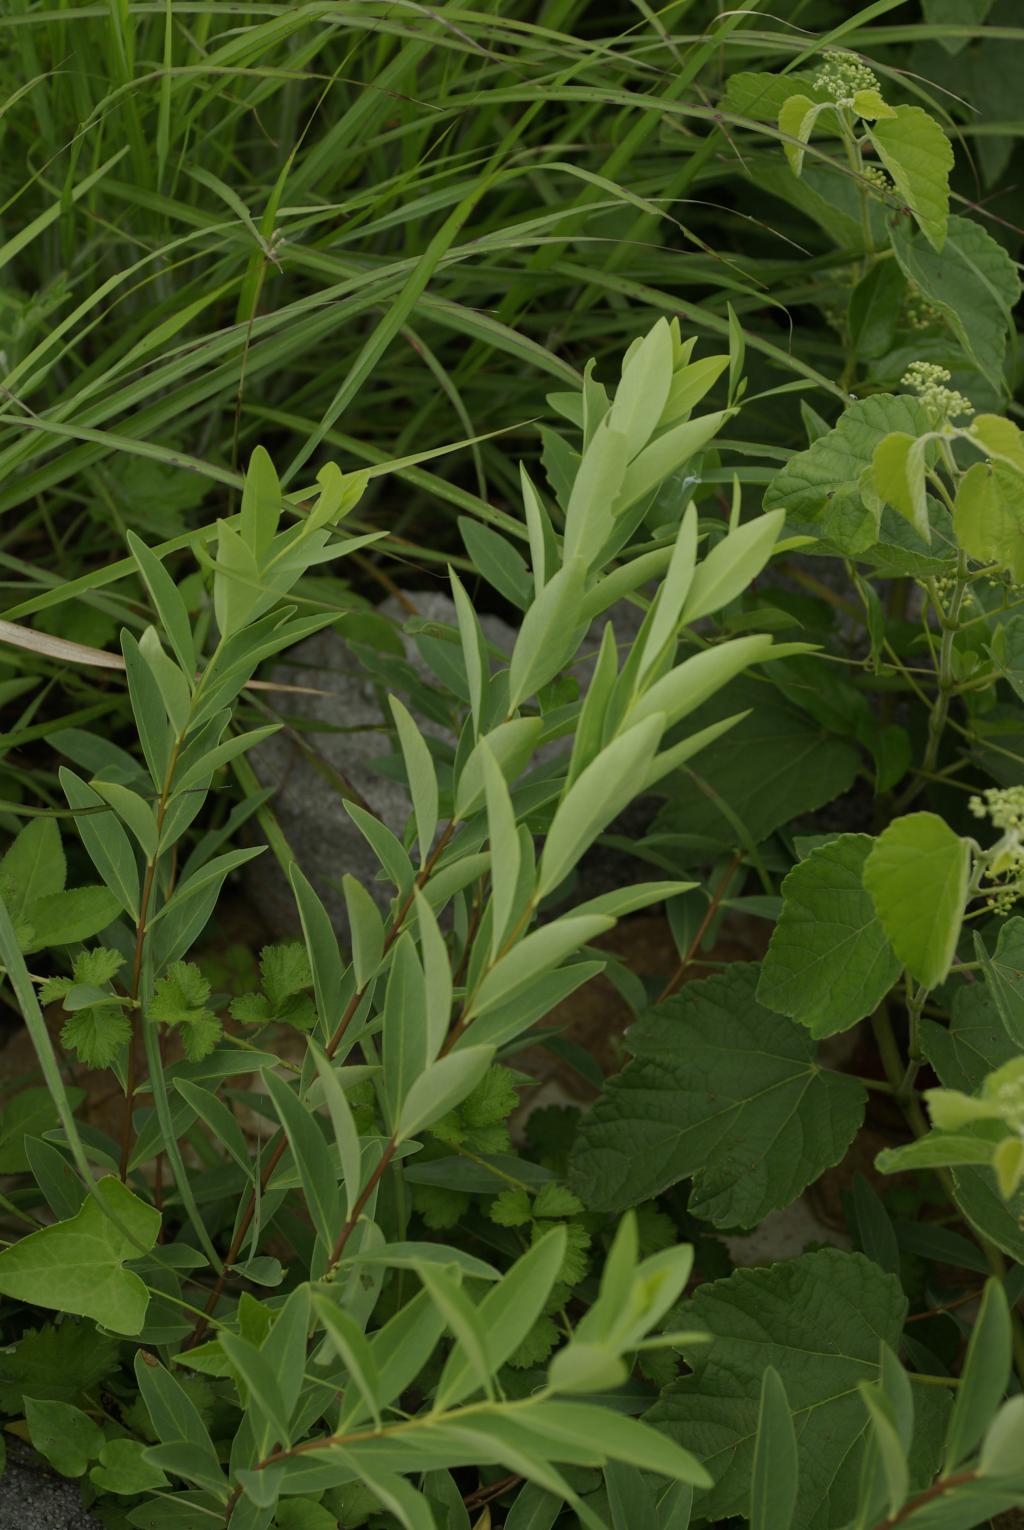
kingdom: Plantae
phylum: Tracheophyta
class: Magnoliopsida
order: Malvales
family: Thymelaeaceae
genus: Wikstroemia
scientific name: Wikstroemia indica
